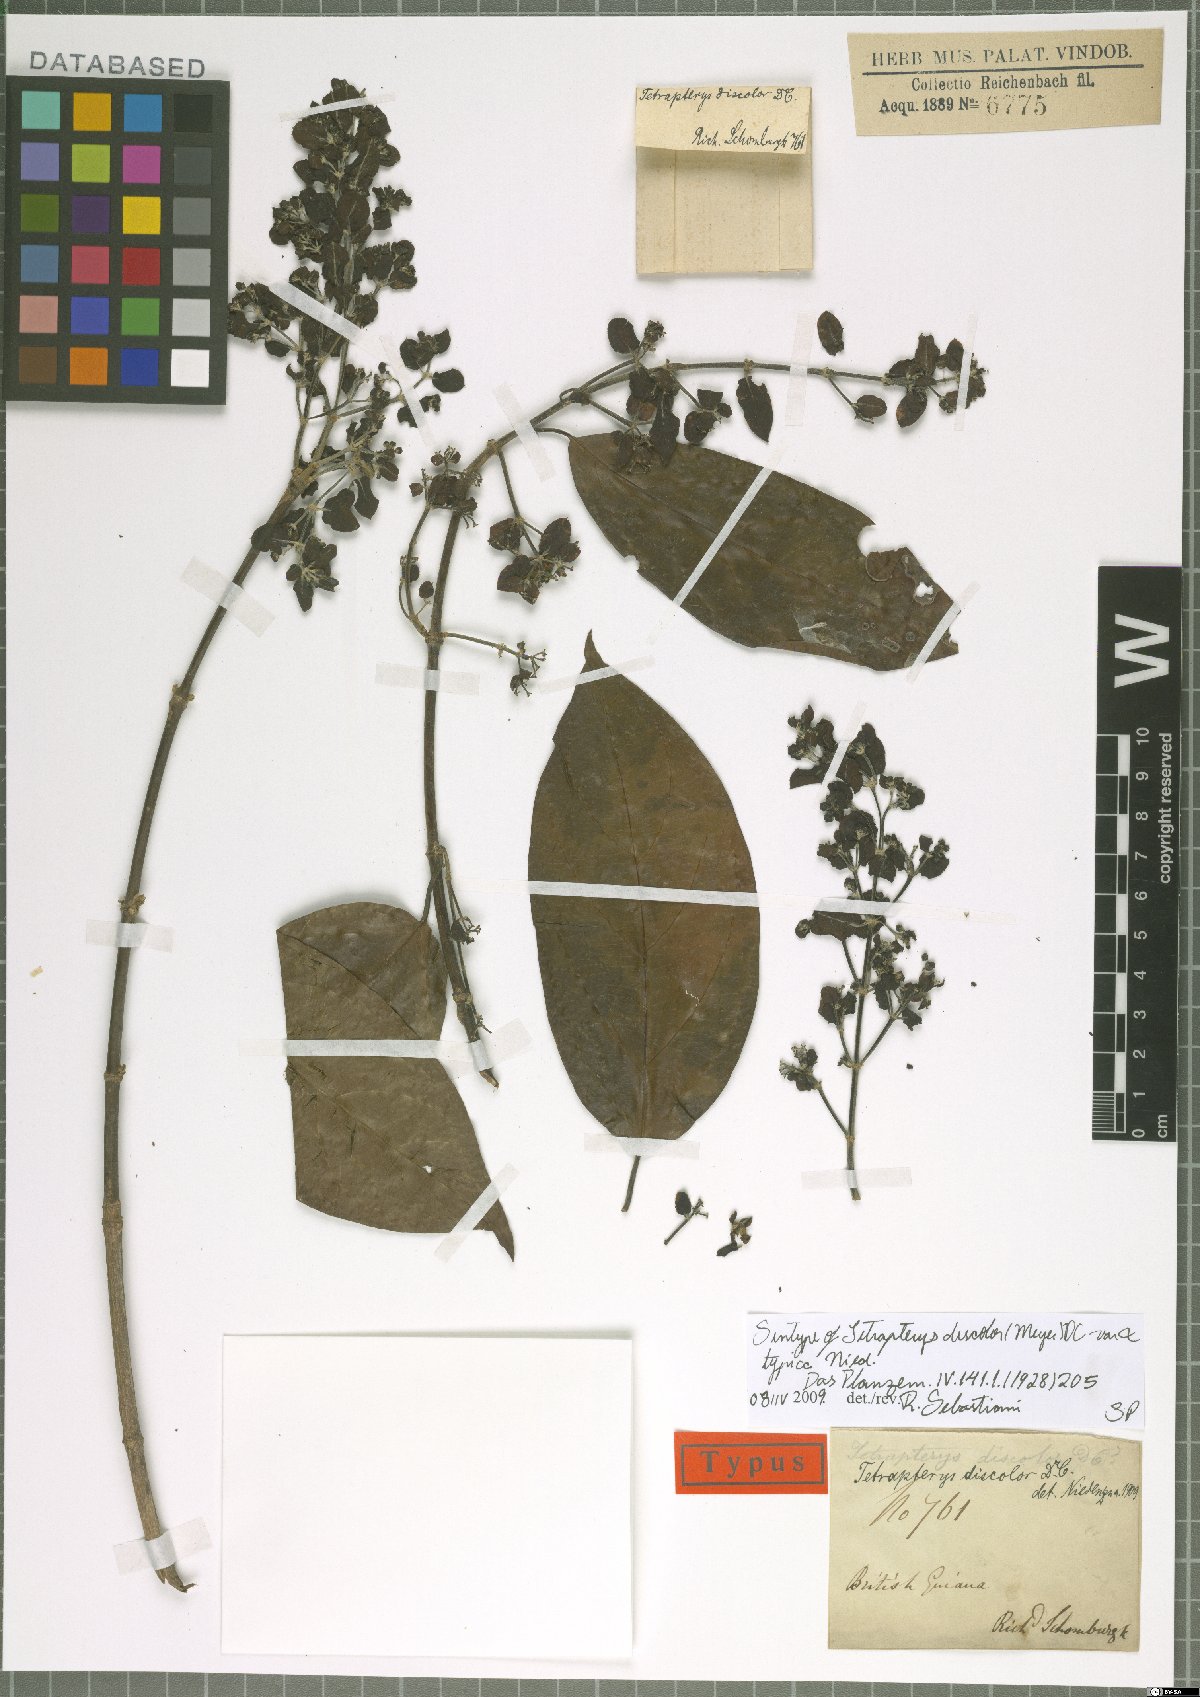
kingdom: Plantae
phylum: Tracheophyta
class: Magnoliopsida
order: Malpighiales
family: Malpighiaceae
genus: Tetrapterys
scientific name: Tetrapterys discolor
